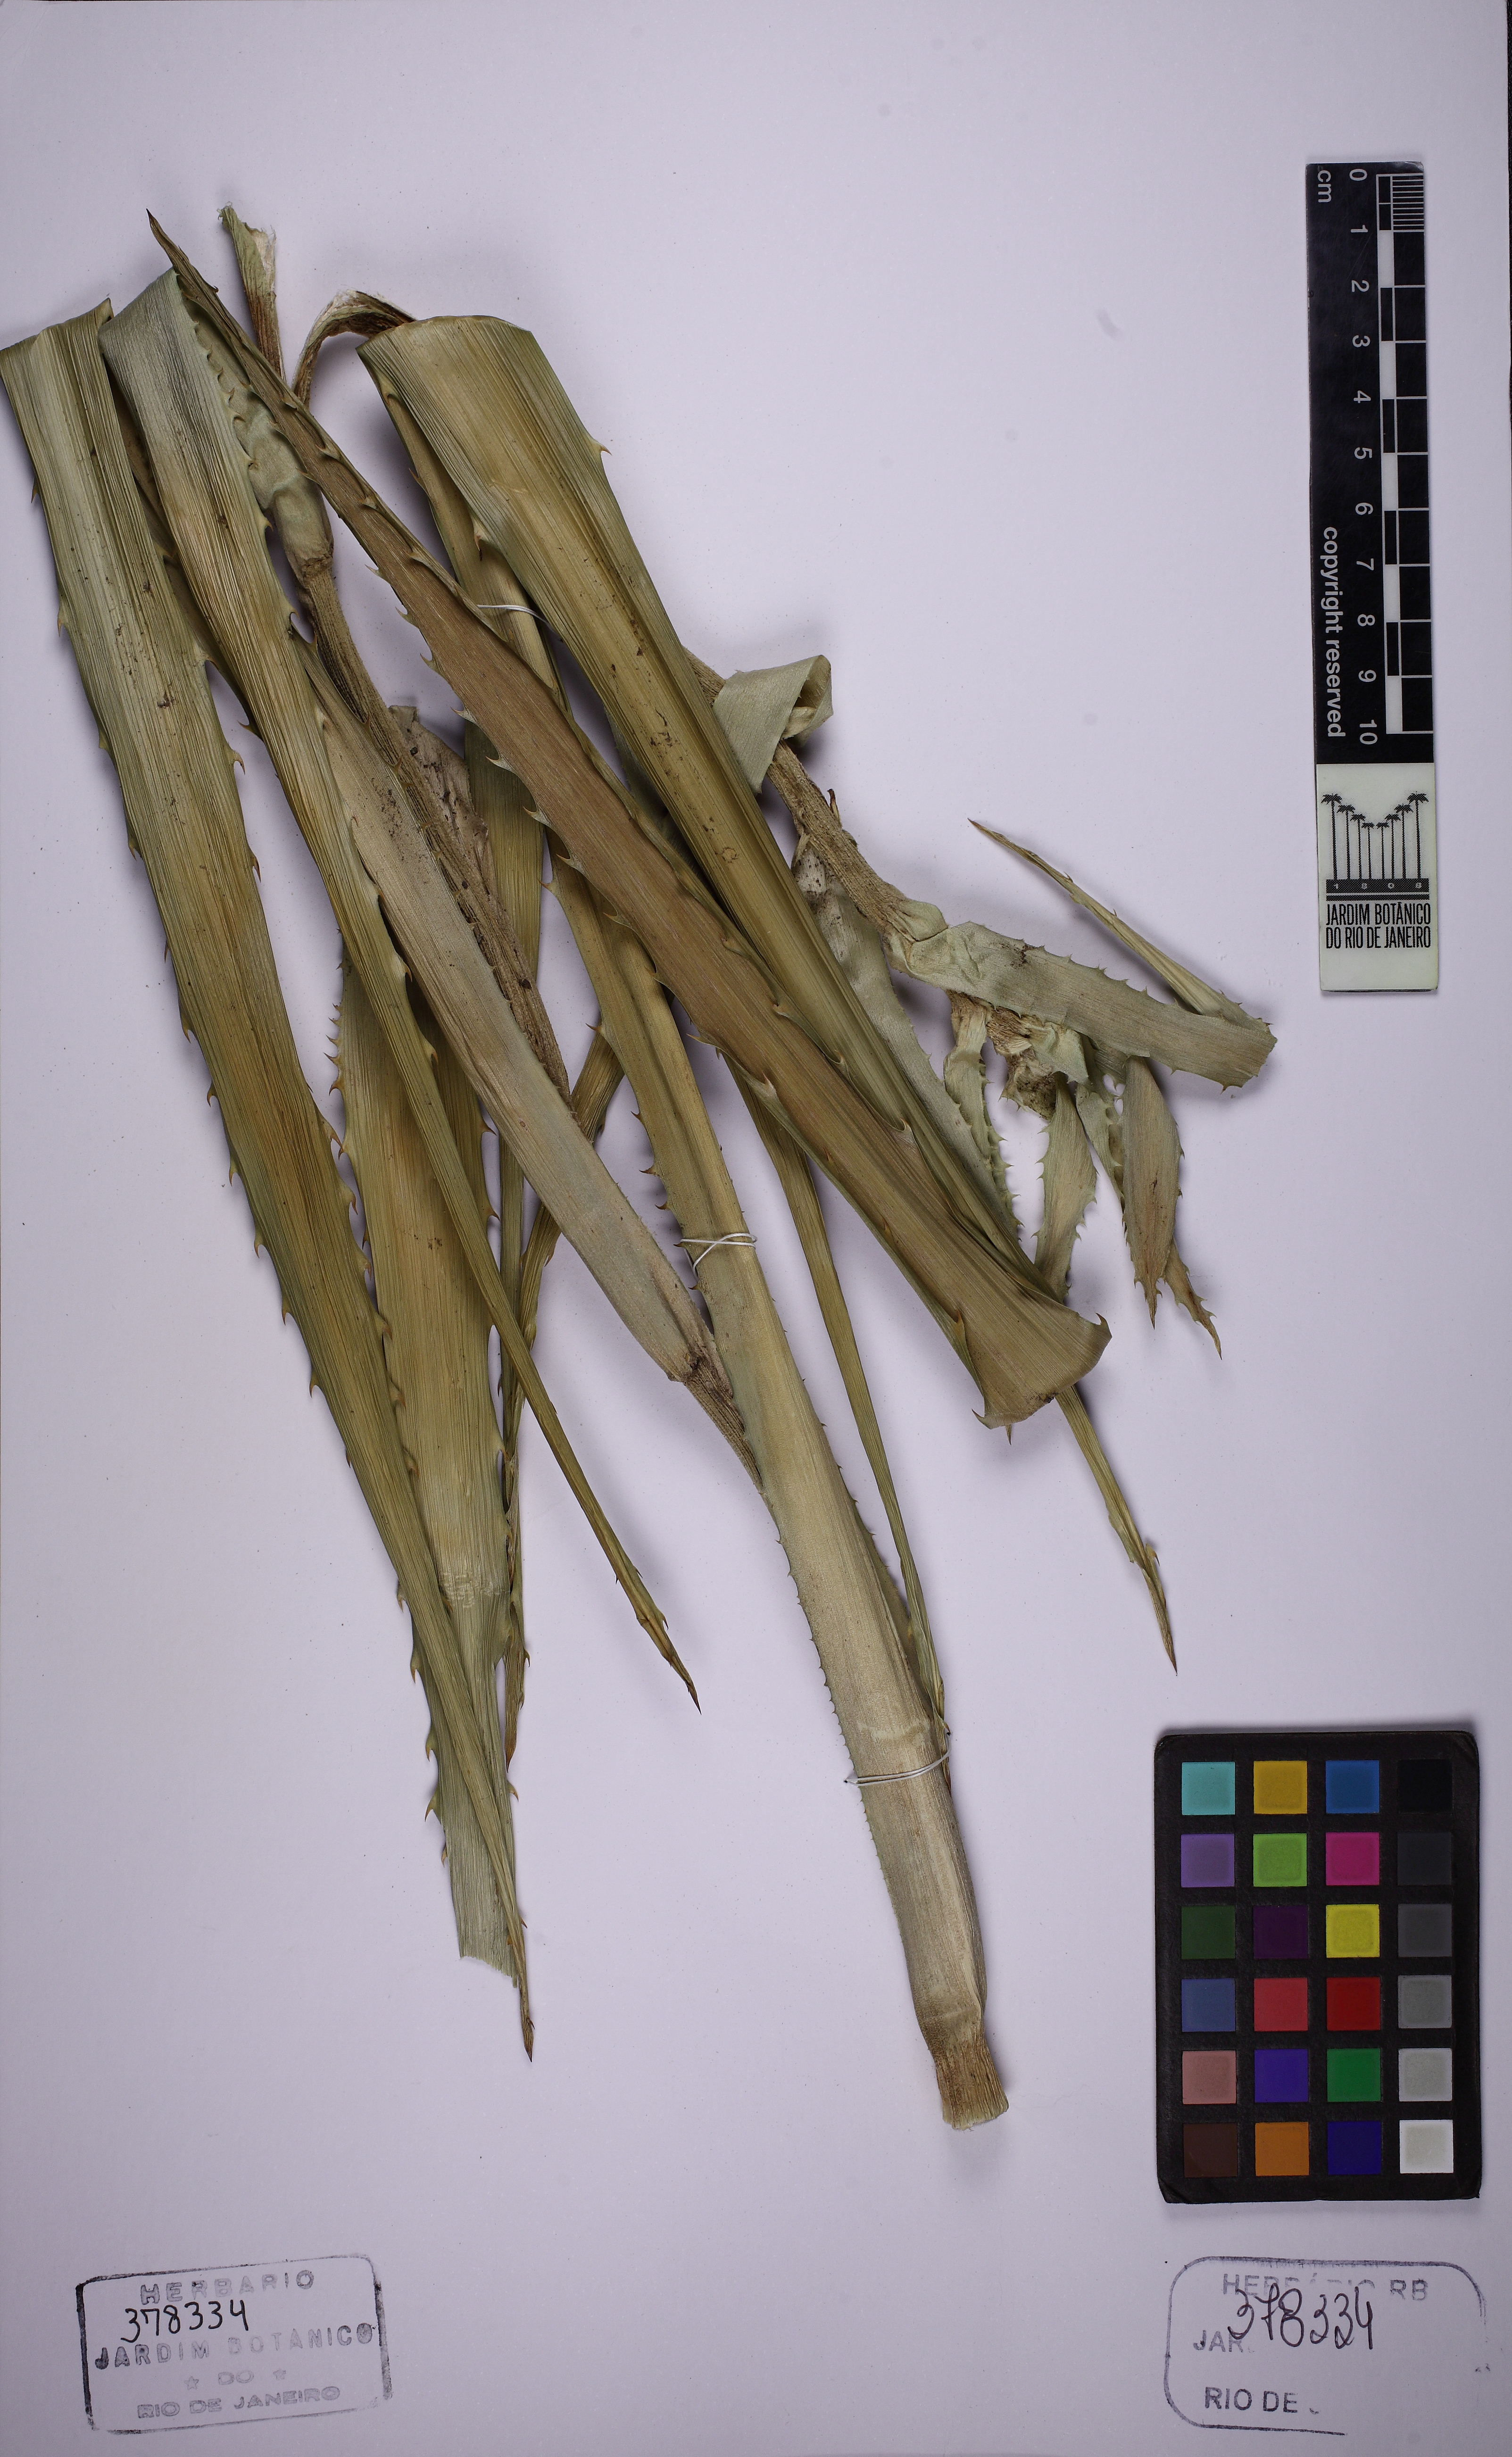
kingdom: Plantae
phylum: Tracheophyta
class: Liliopsida
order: Poales
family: Bromeliaceae
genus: Ananas
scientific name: Ananas comosus
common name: Pineapple
